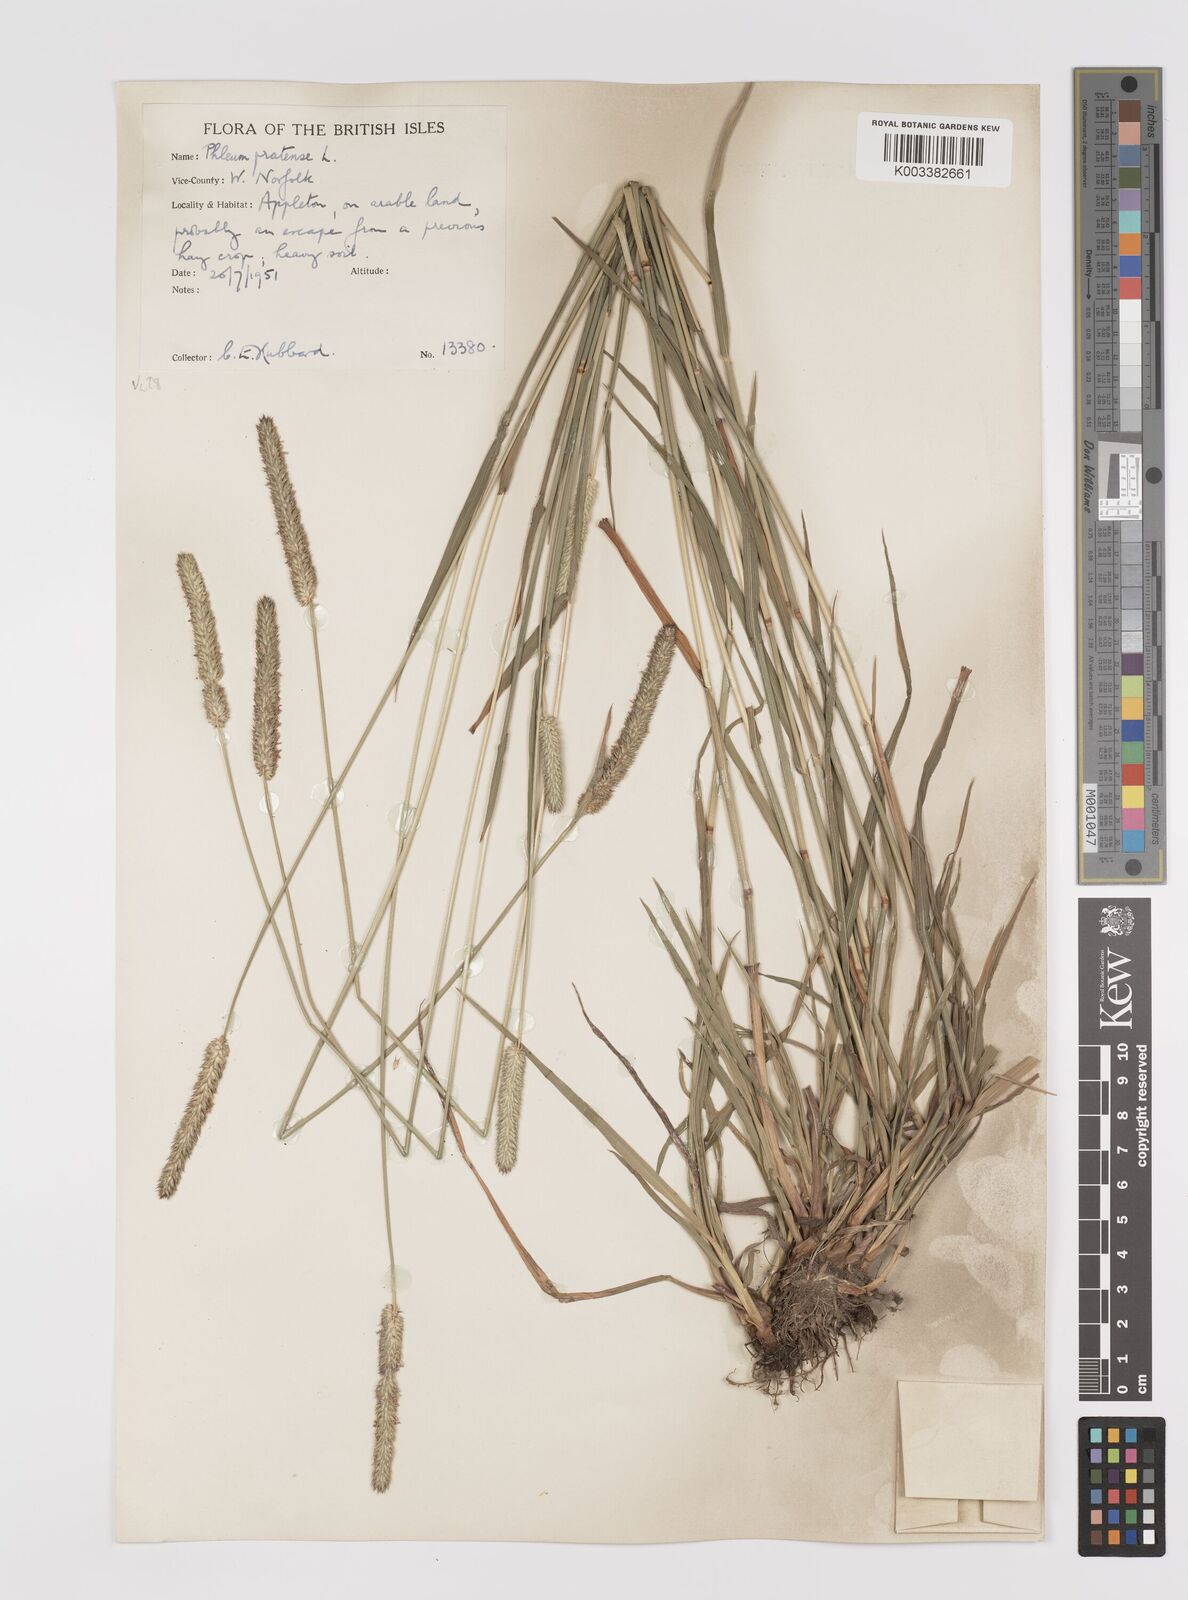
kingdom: Plantae
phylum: Tracheophyta
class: Liliopsida
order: Poales
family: Poaceae
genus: Phleum
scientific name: Phleum pratense
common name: Timothy grass
